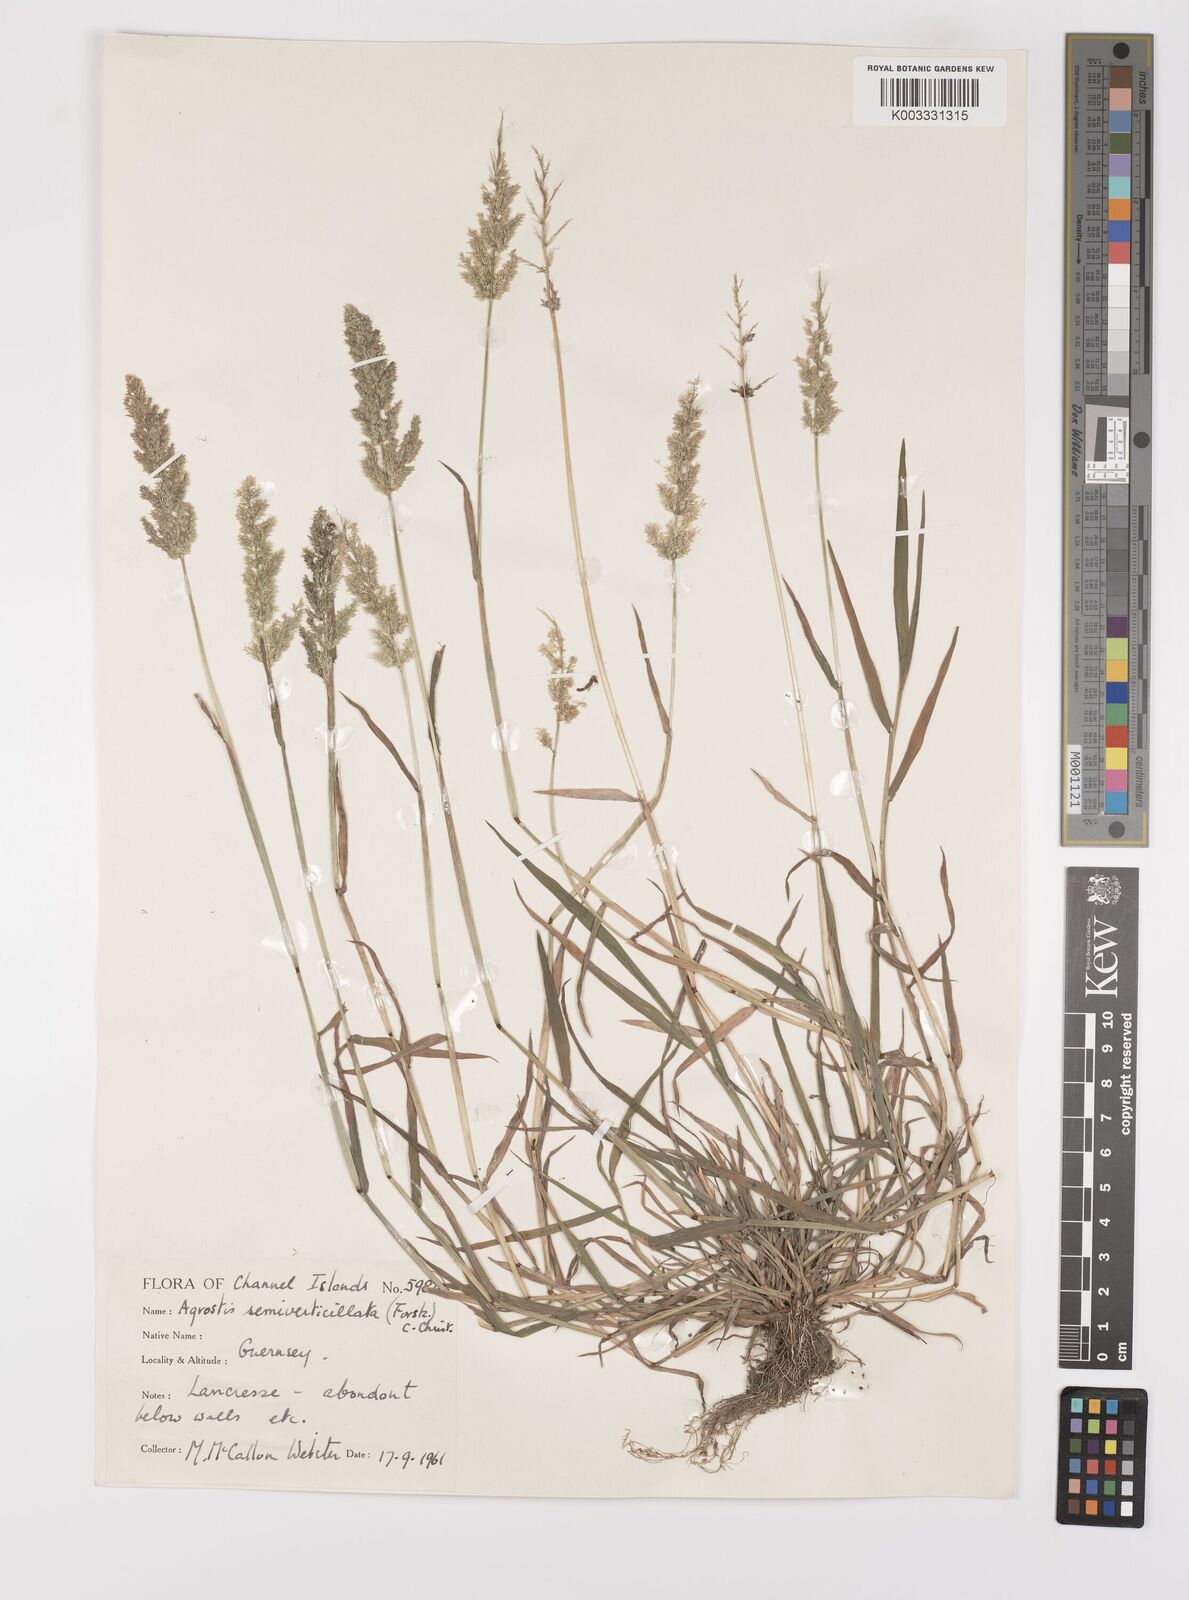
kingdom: Plantae
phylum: Tracheophyta
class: Liliopsida
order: Poales
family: Poaceae
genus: Polypogon
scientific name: Polypogon viridis
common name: Water bent
